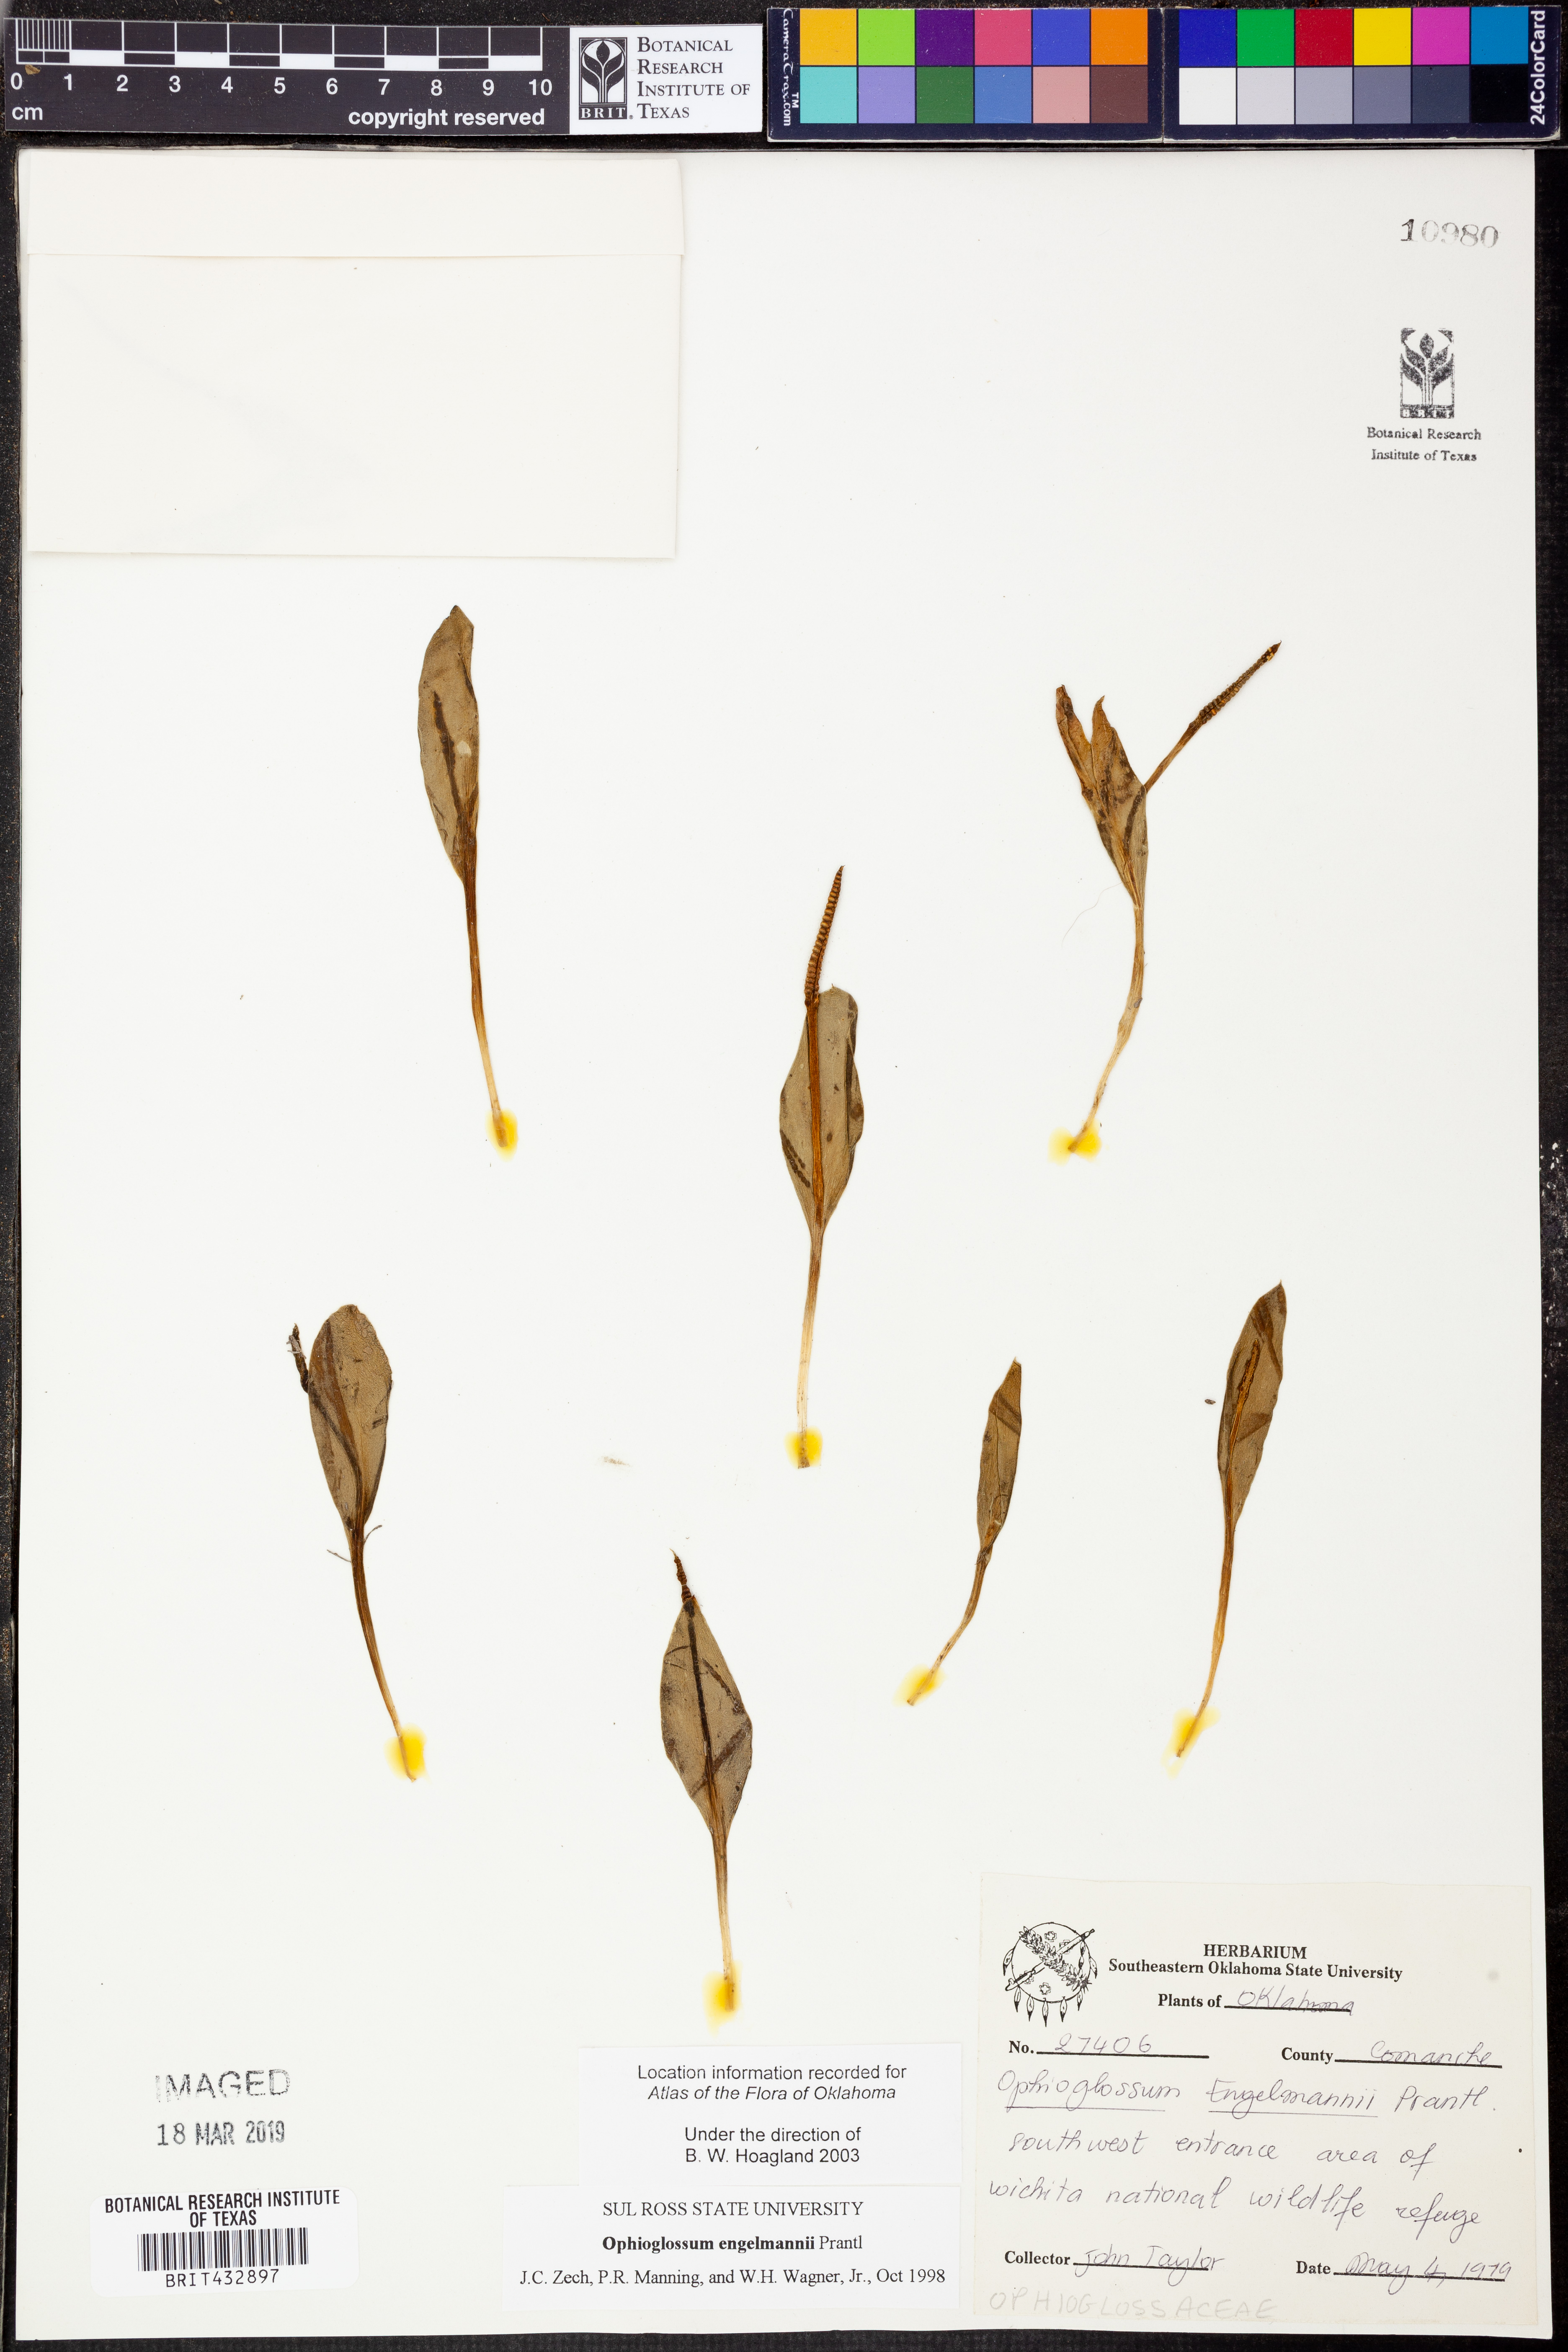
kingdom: Plantae
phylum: Tracheophyta
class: Polypodiopsida
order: Ophioglossales
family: Ophioglossaceae
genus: Ophioglossum
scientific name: Ophioglossum engelmannii
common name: Limestone adder's-tongue
